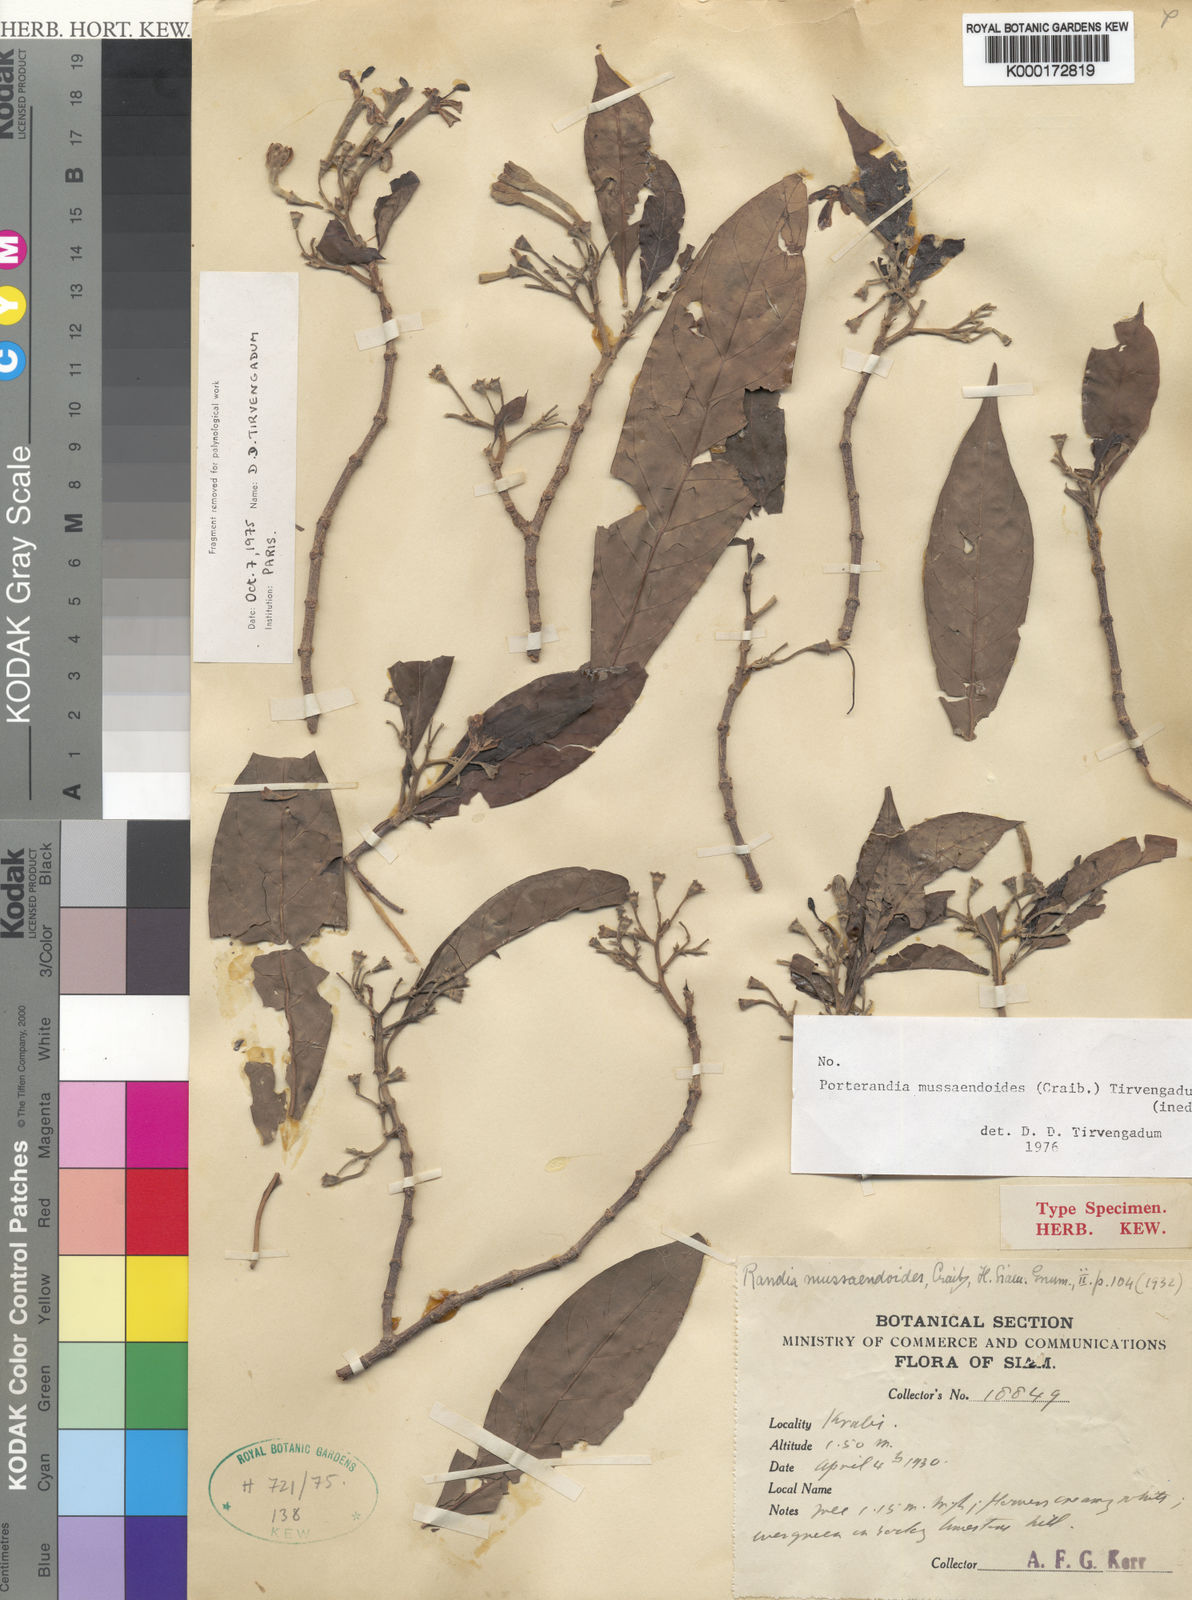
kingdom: Plantae
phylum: Tracheophyta
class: Magnoliopsida
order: Gentianales
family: Rubiaceae
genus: Tarenna
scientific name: Tarenna mussaendoides
